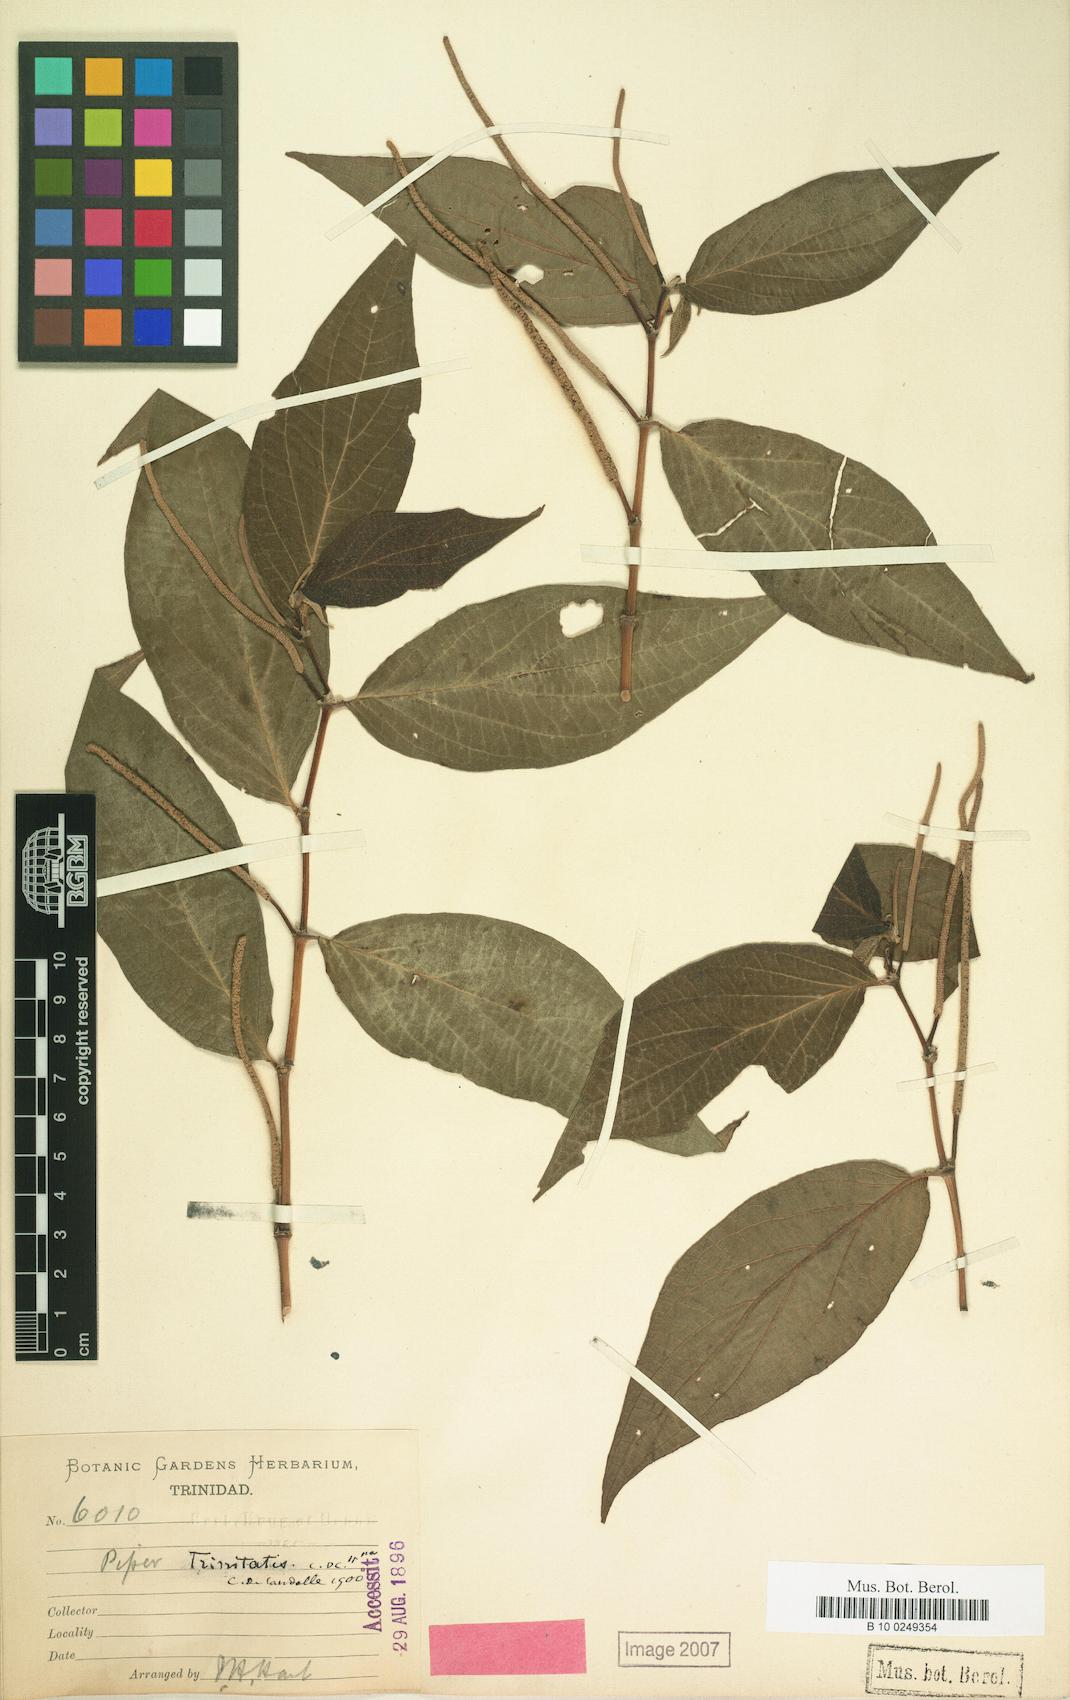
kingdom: Plantae
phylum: Tracheophyta
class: Magnoliopsida
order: Piperales
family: Piperaceae
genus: Piper
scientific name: Piper dilatatum
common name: Higuillo
